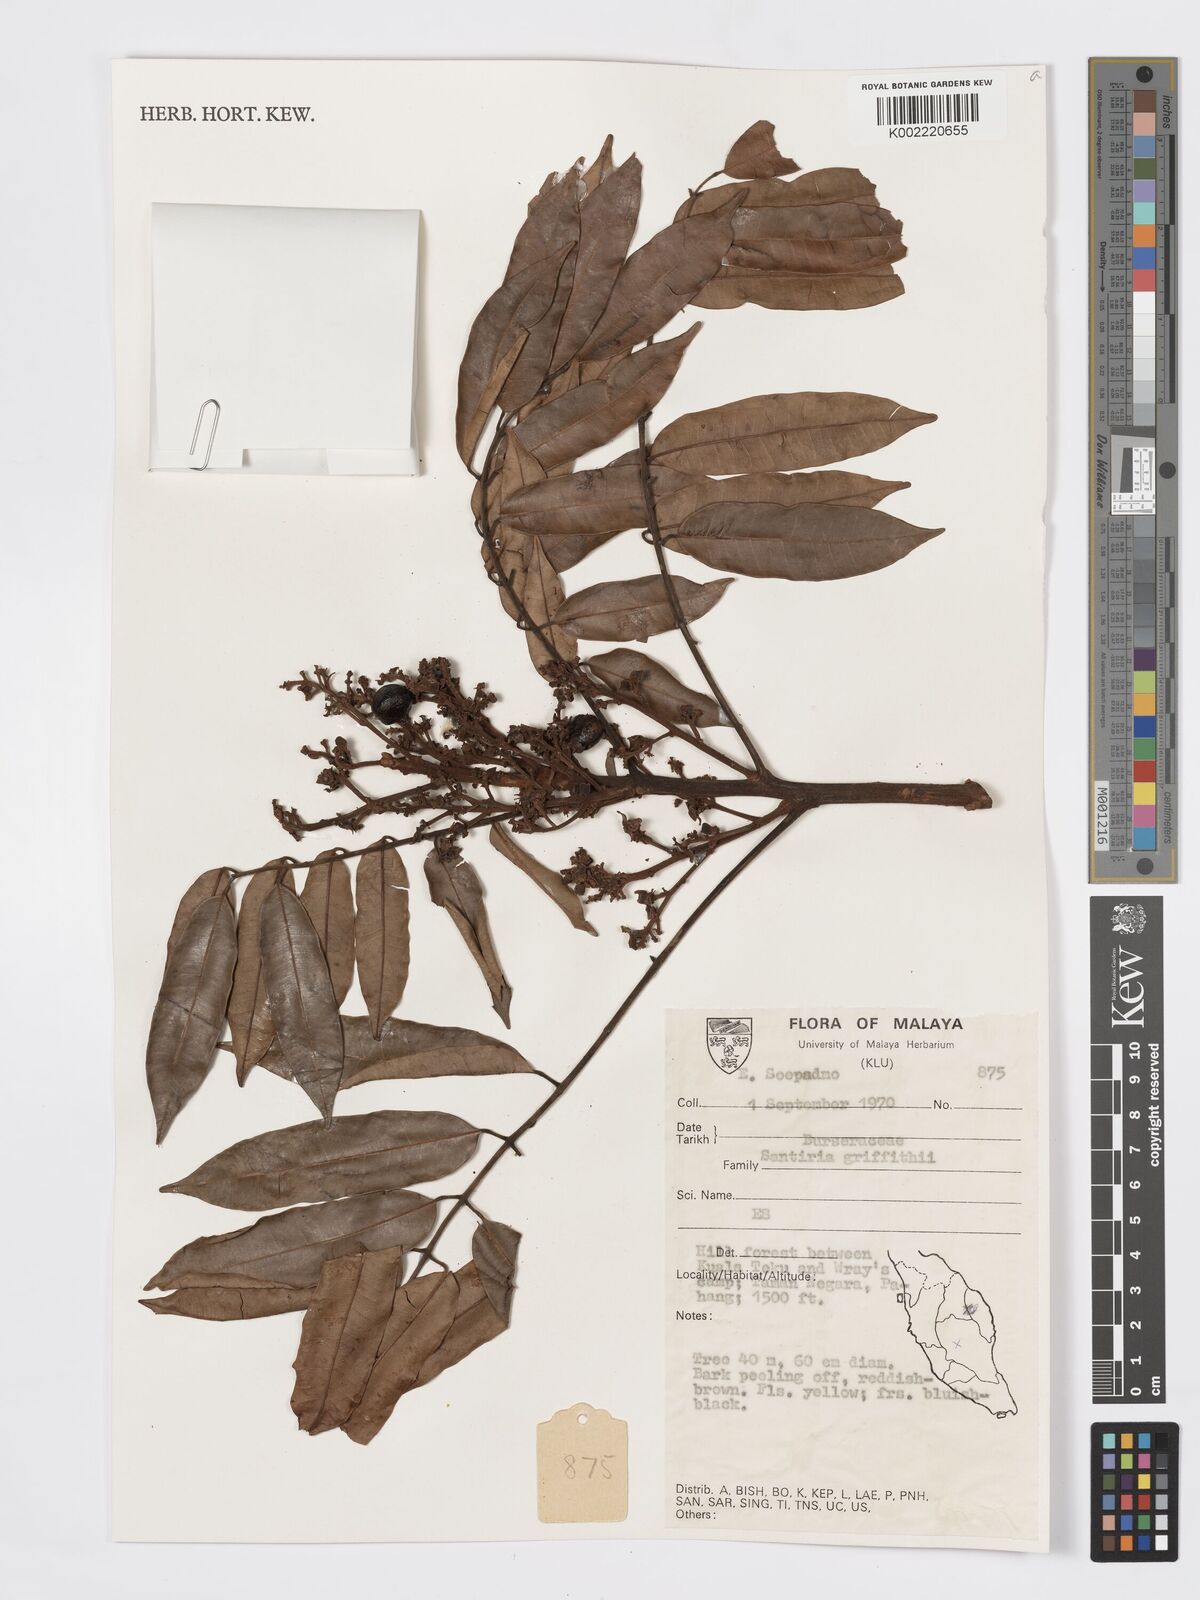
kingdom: Plantae
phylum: Tracheophyta
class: Magnoliopsida
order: Sapindales
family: Burseraceae
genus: Santiria
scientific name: Santiria griffithii
